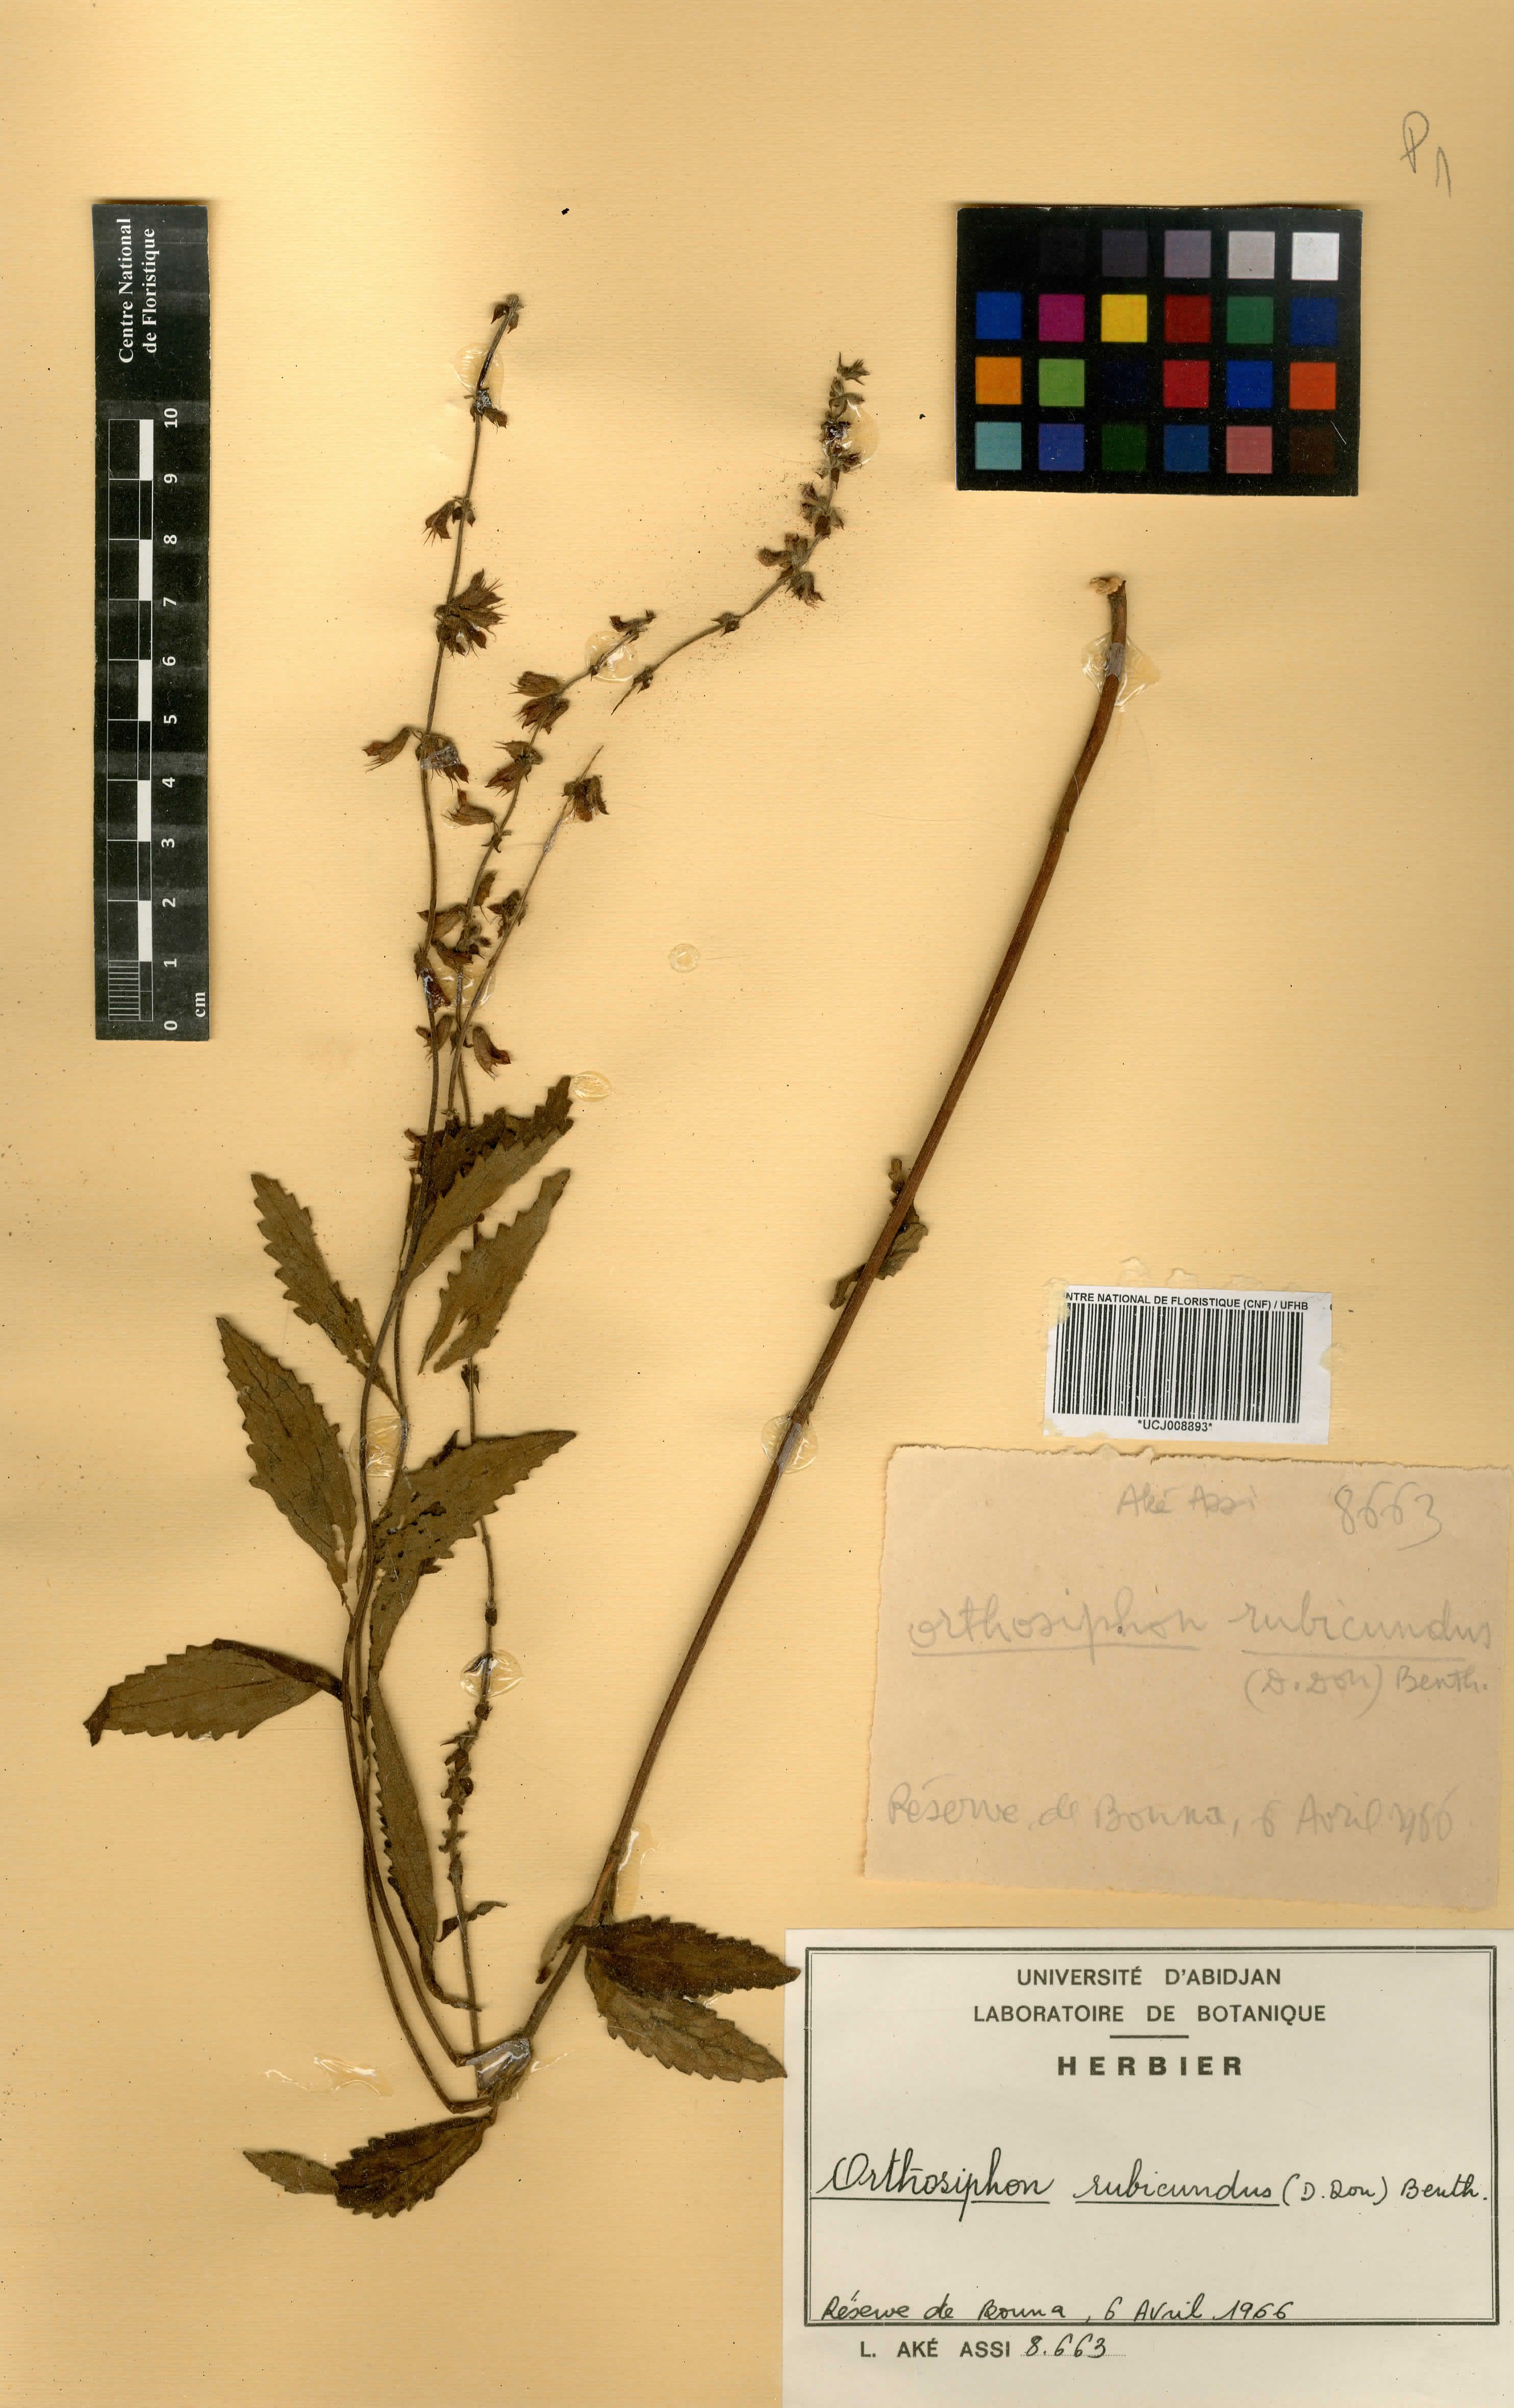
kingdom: Plantae
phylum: Tracheophyta
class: Magnoliopsida
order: Lamiales
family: Lamiaceae
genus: Orthosiphon
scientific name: Orthosiphon rubicundus
